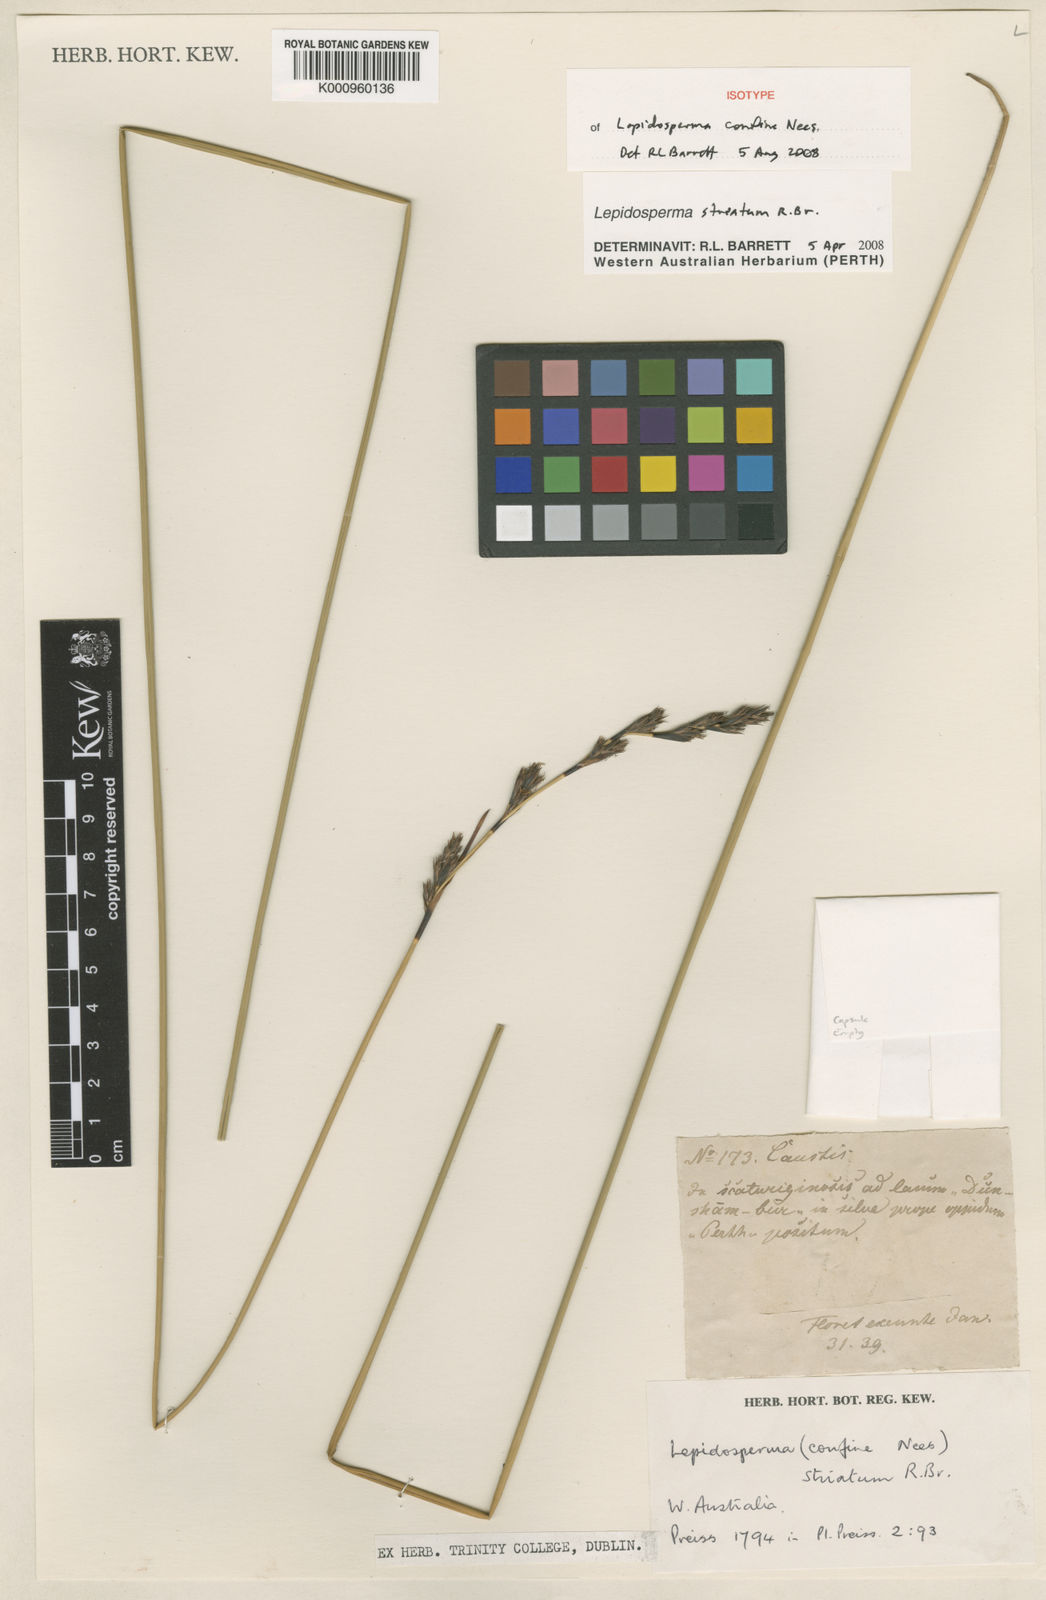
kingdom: Plantae
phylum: Tracheophyta
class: Liliopsida
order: Poales
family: Cyperaceae
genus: Lepidosperma
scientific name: Lepidosperma striatum
